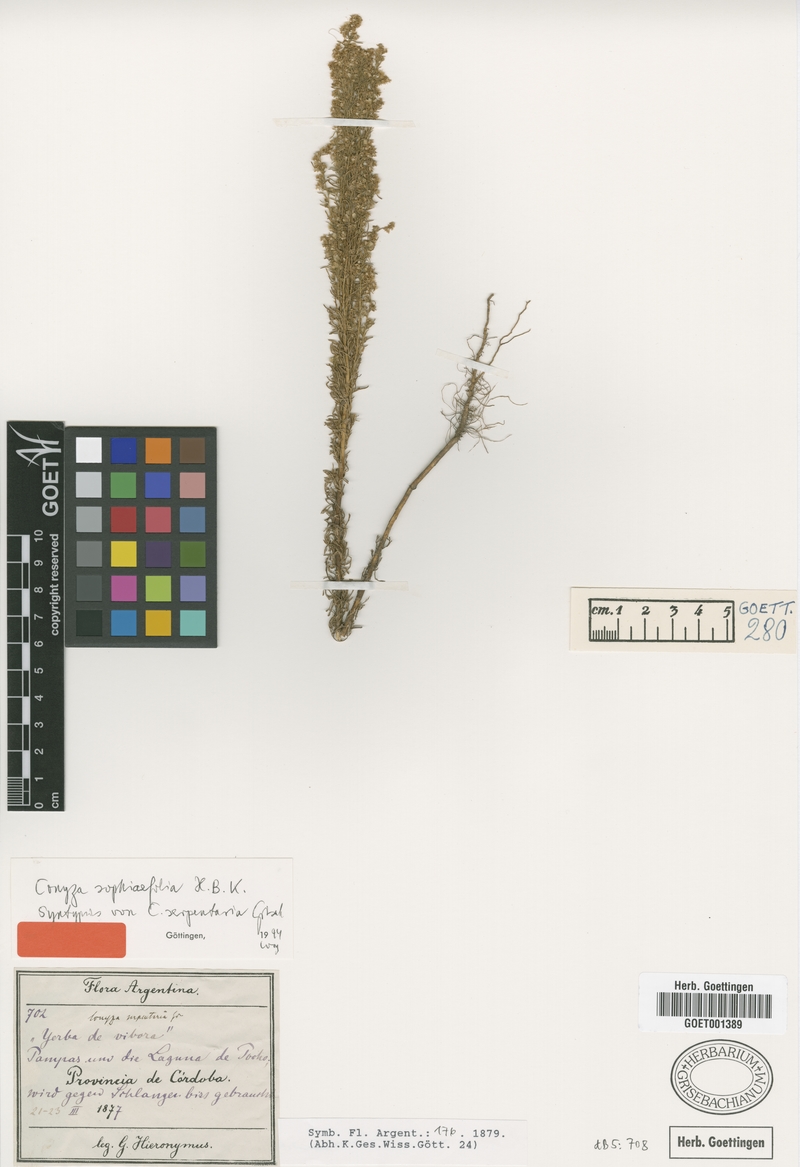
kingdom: Plantae
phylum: Tracheophyta
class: Magnoliopsida
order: Asterales
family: Asteraceae
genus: Laennecia
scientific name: Laennecia sophiifolia
